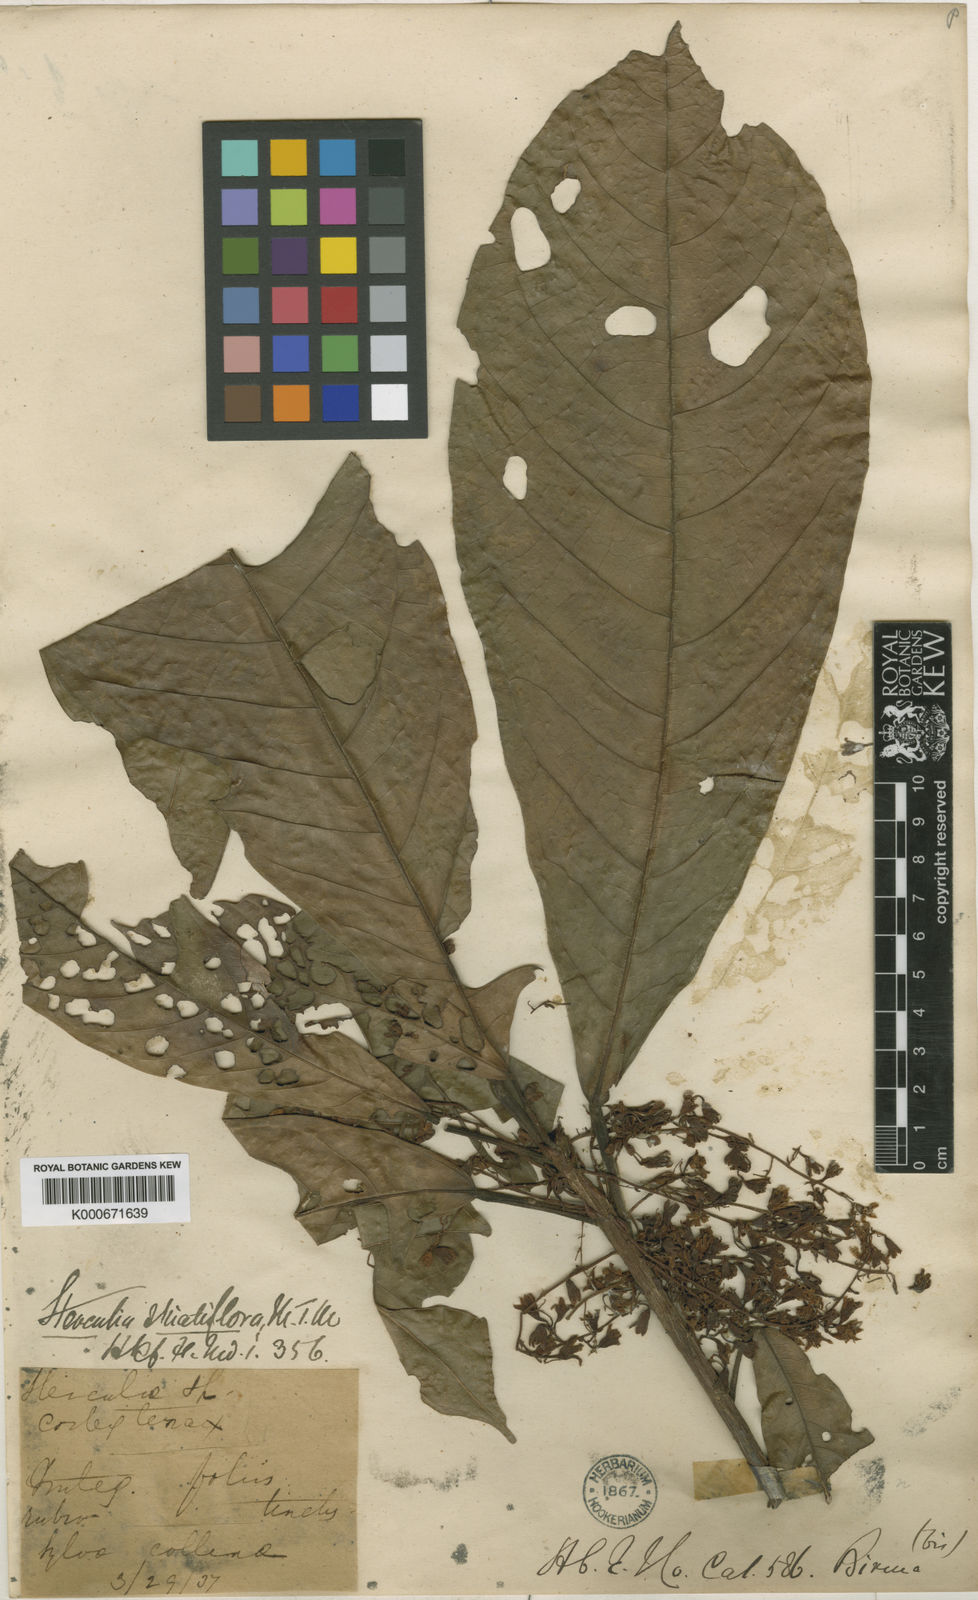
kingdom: Plantae
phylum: Tracheophyta
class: Magnoliopsida
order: Malvales
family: Malvaceae
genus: Sterculia
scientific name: Sterculia striatiflora
